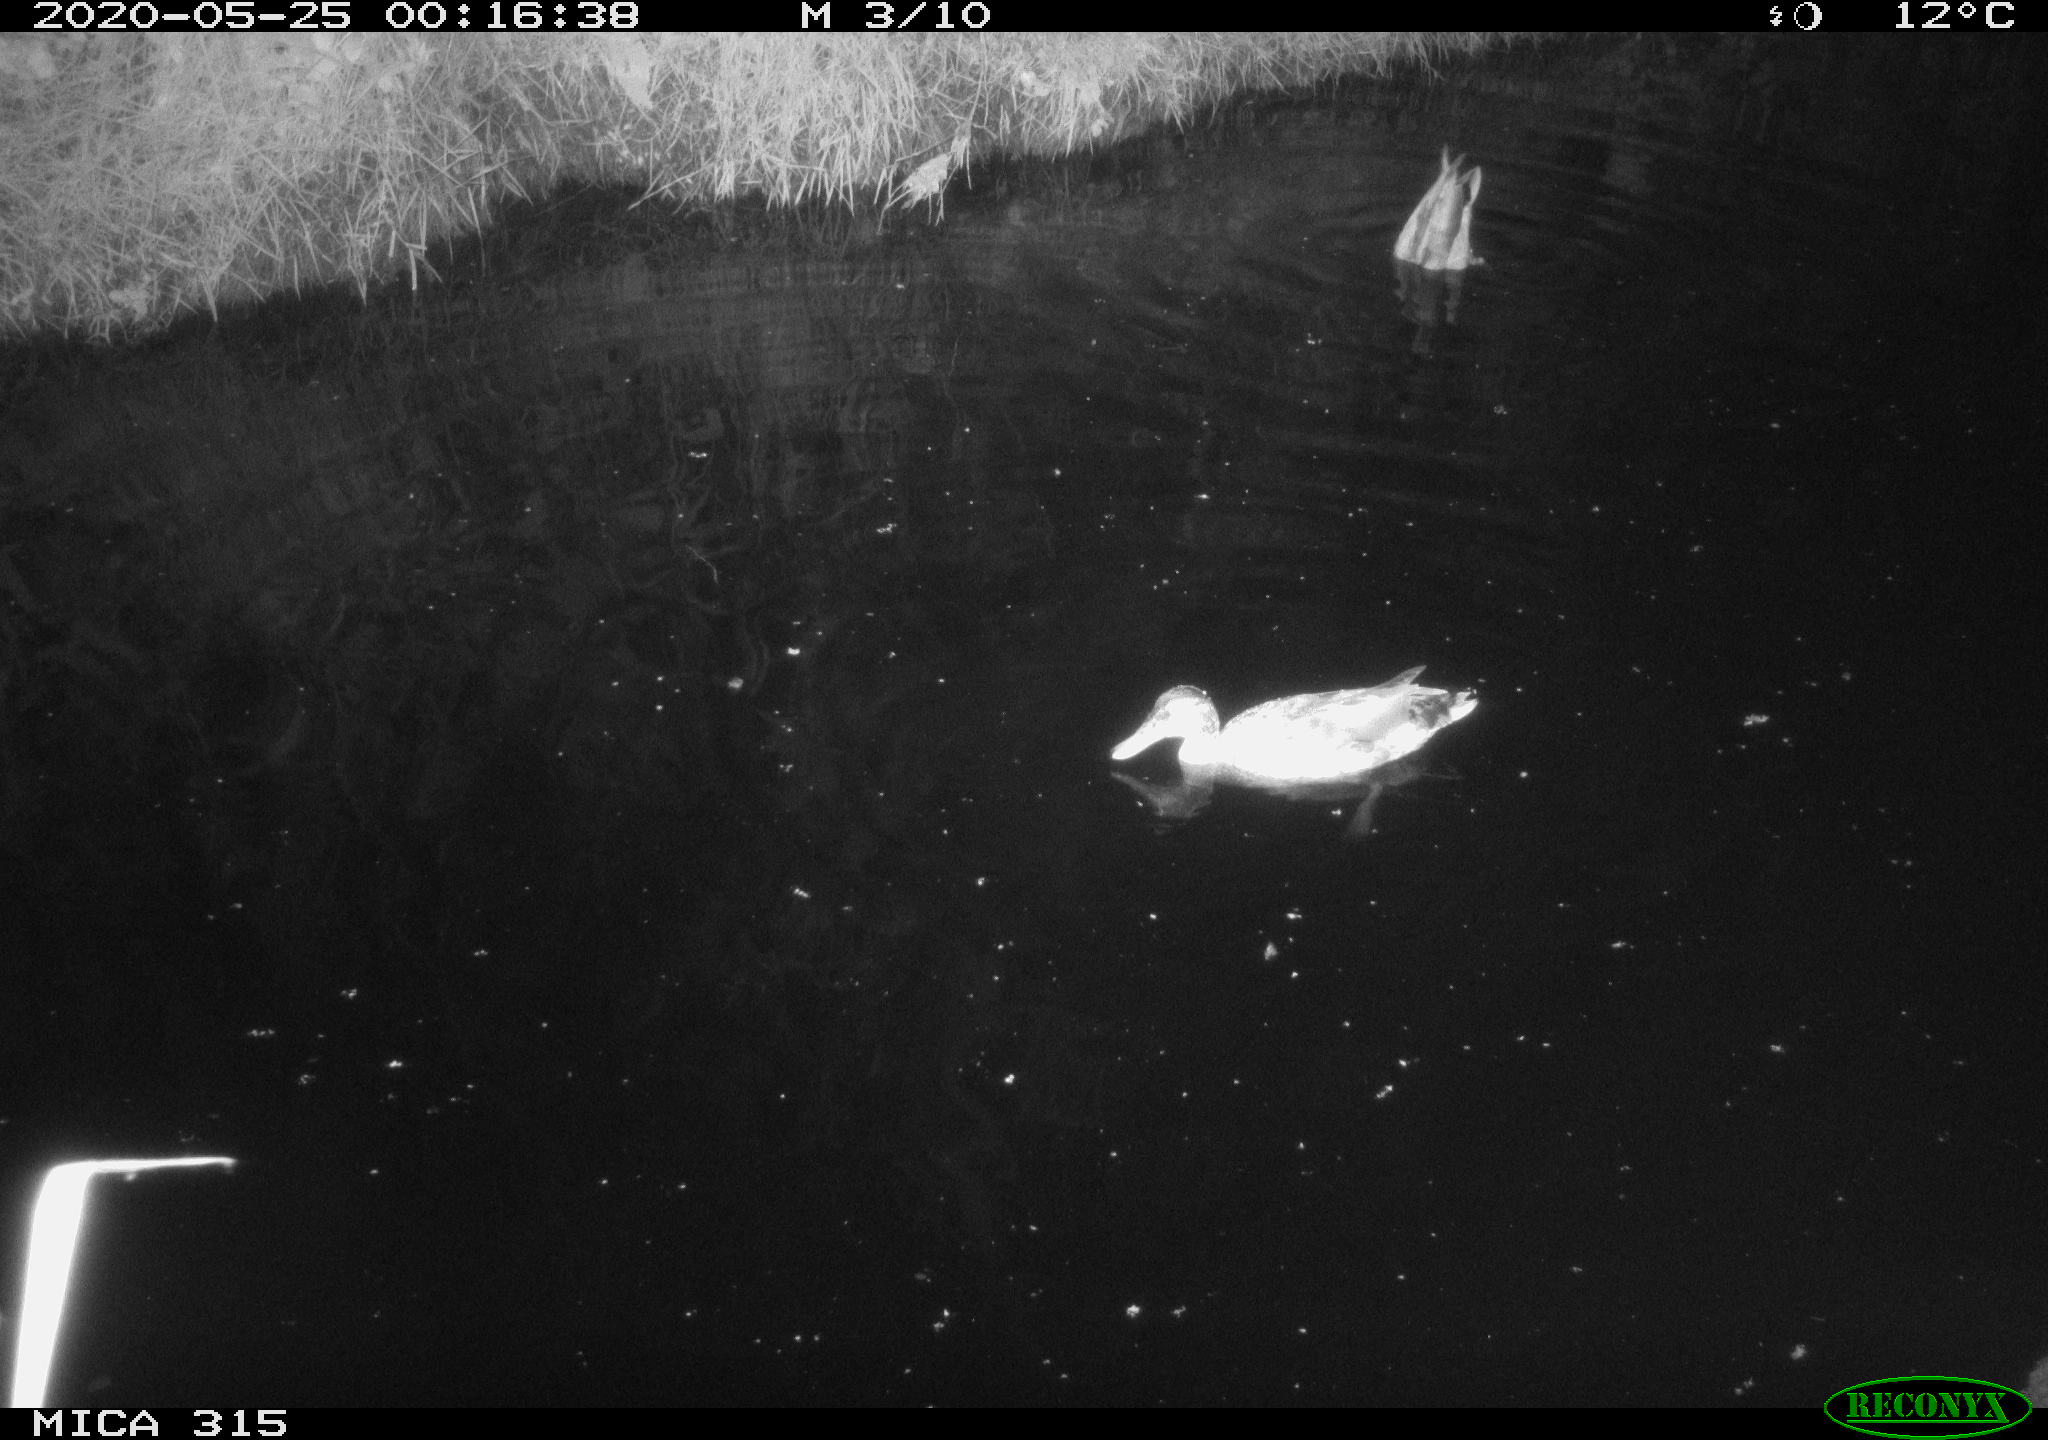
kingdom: Animalia
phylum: Chordata
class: Aves
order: Anseriformes
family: Anatidae
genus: Anas
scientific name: Anas platyrhynchos
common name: Mallard
